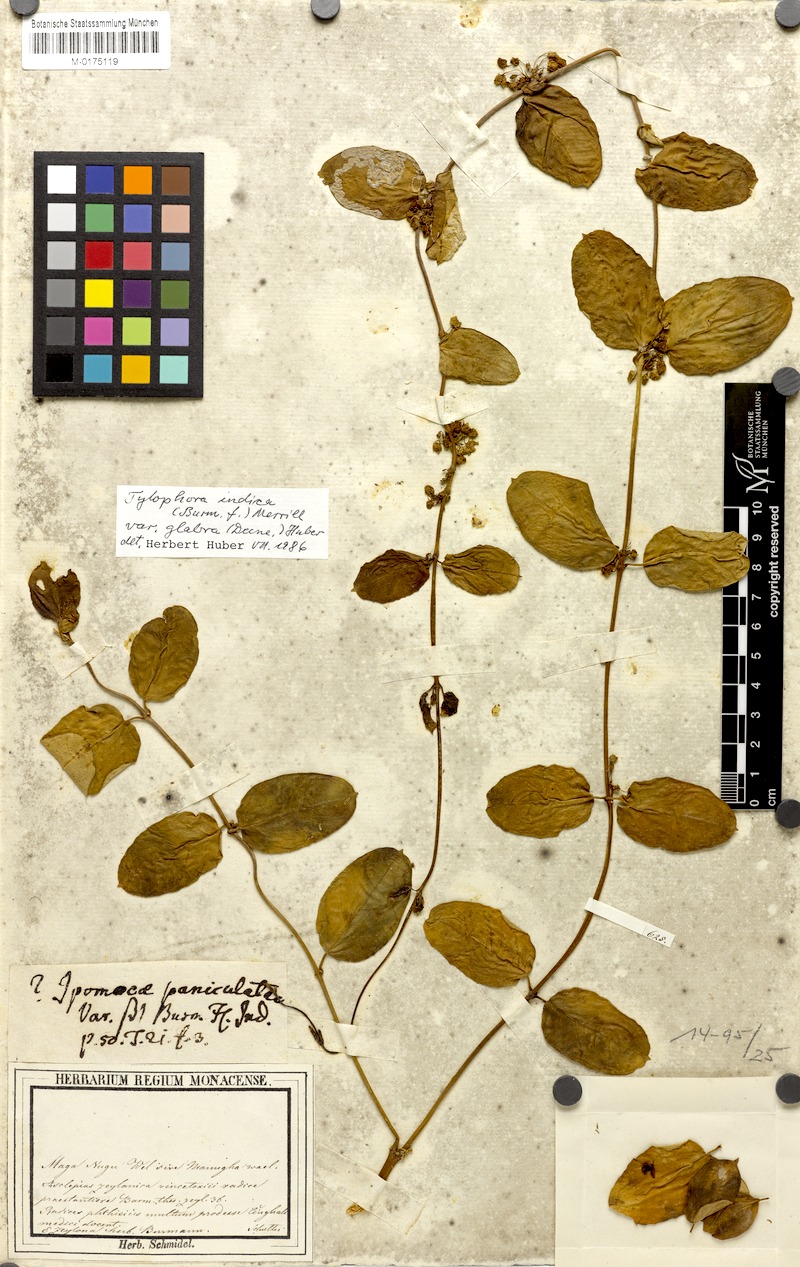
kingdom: Plantae
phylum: Tracheophyta
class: Magnoliopsida
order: Gentianales
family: Apocynaceae
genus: Vincetoxicum
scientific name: Vincetoxicum indicum
